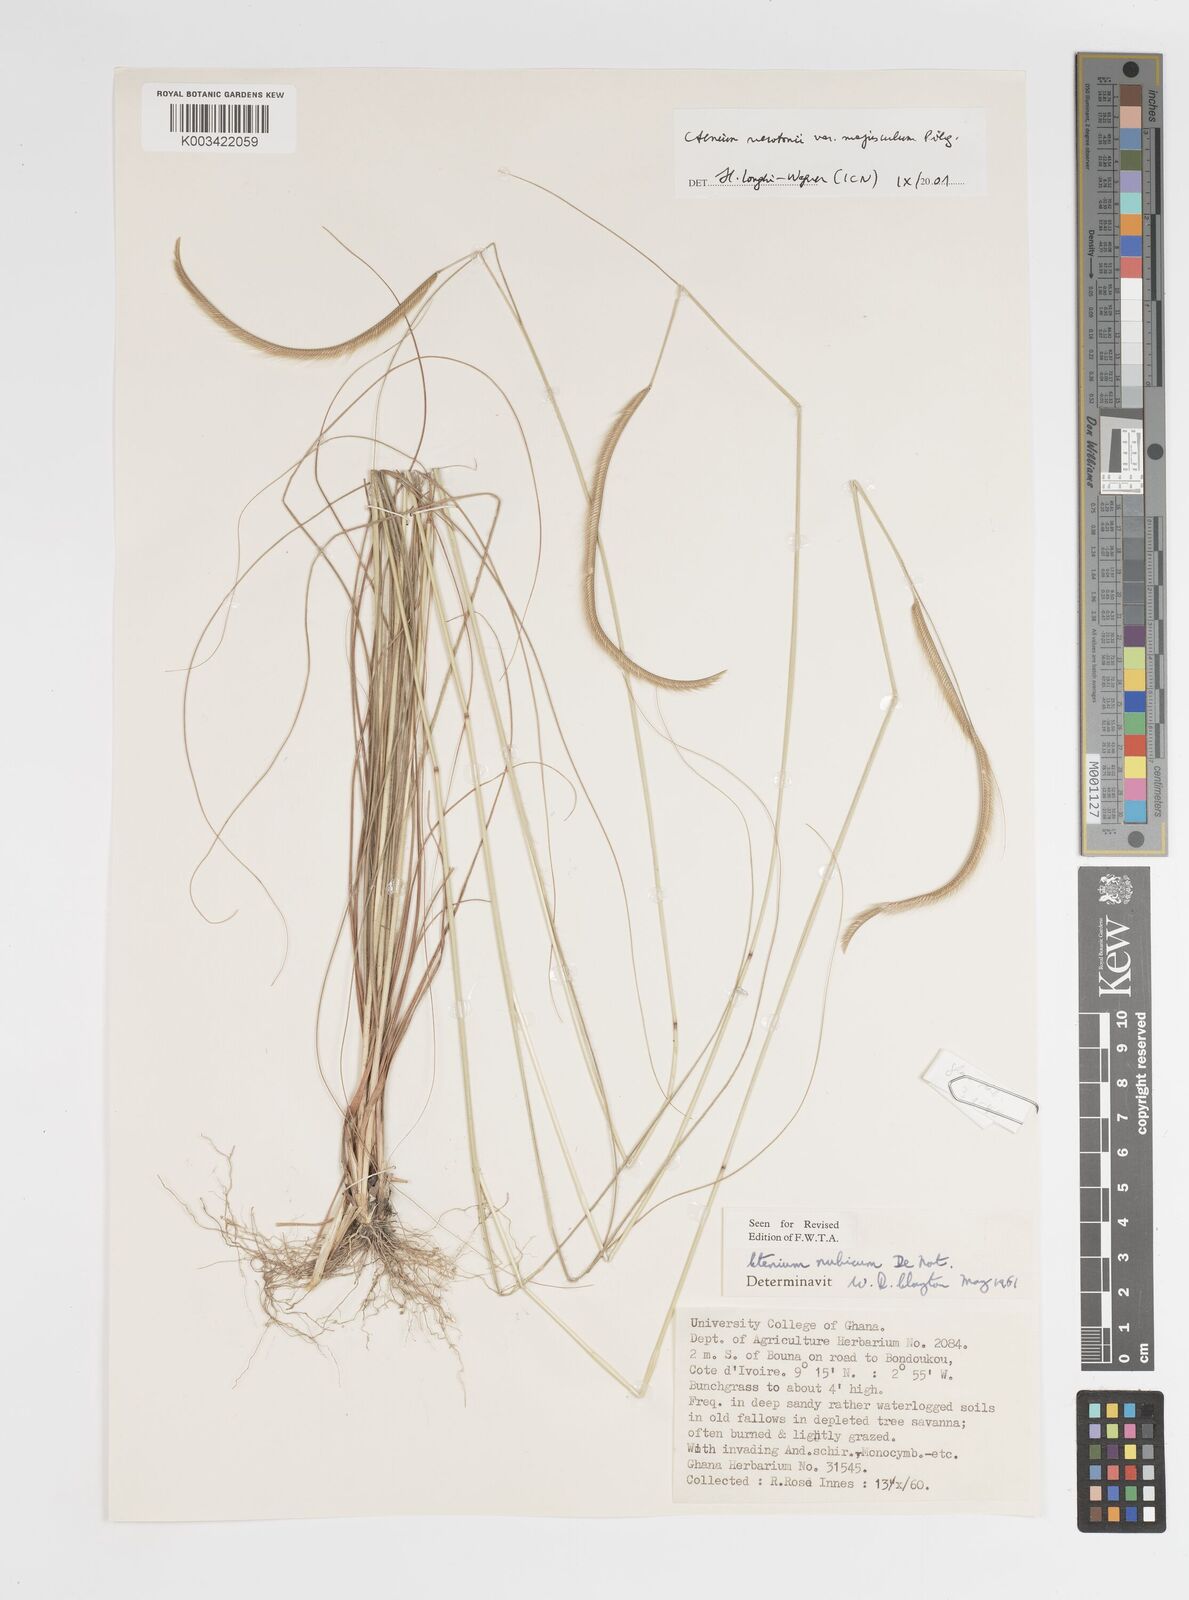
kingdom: Plantae
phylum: Tracheophyta
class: Liliopsida
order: Poales
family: Poaceae
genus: Ctenium
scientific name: Ctenium newtonii
